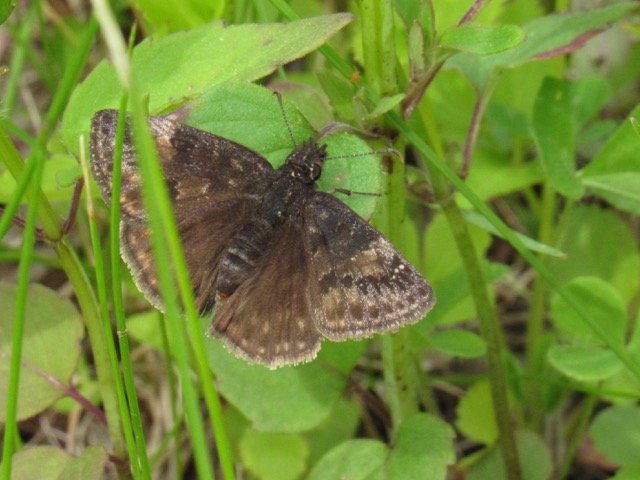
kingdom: Animalia
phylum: Arthropoda
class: Insecta
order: Lepidoptera
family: Hesperiidae
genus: Gesta
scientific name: Gesta
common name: Wild Indigo Duskywing
